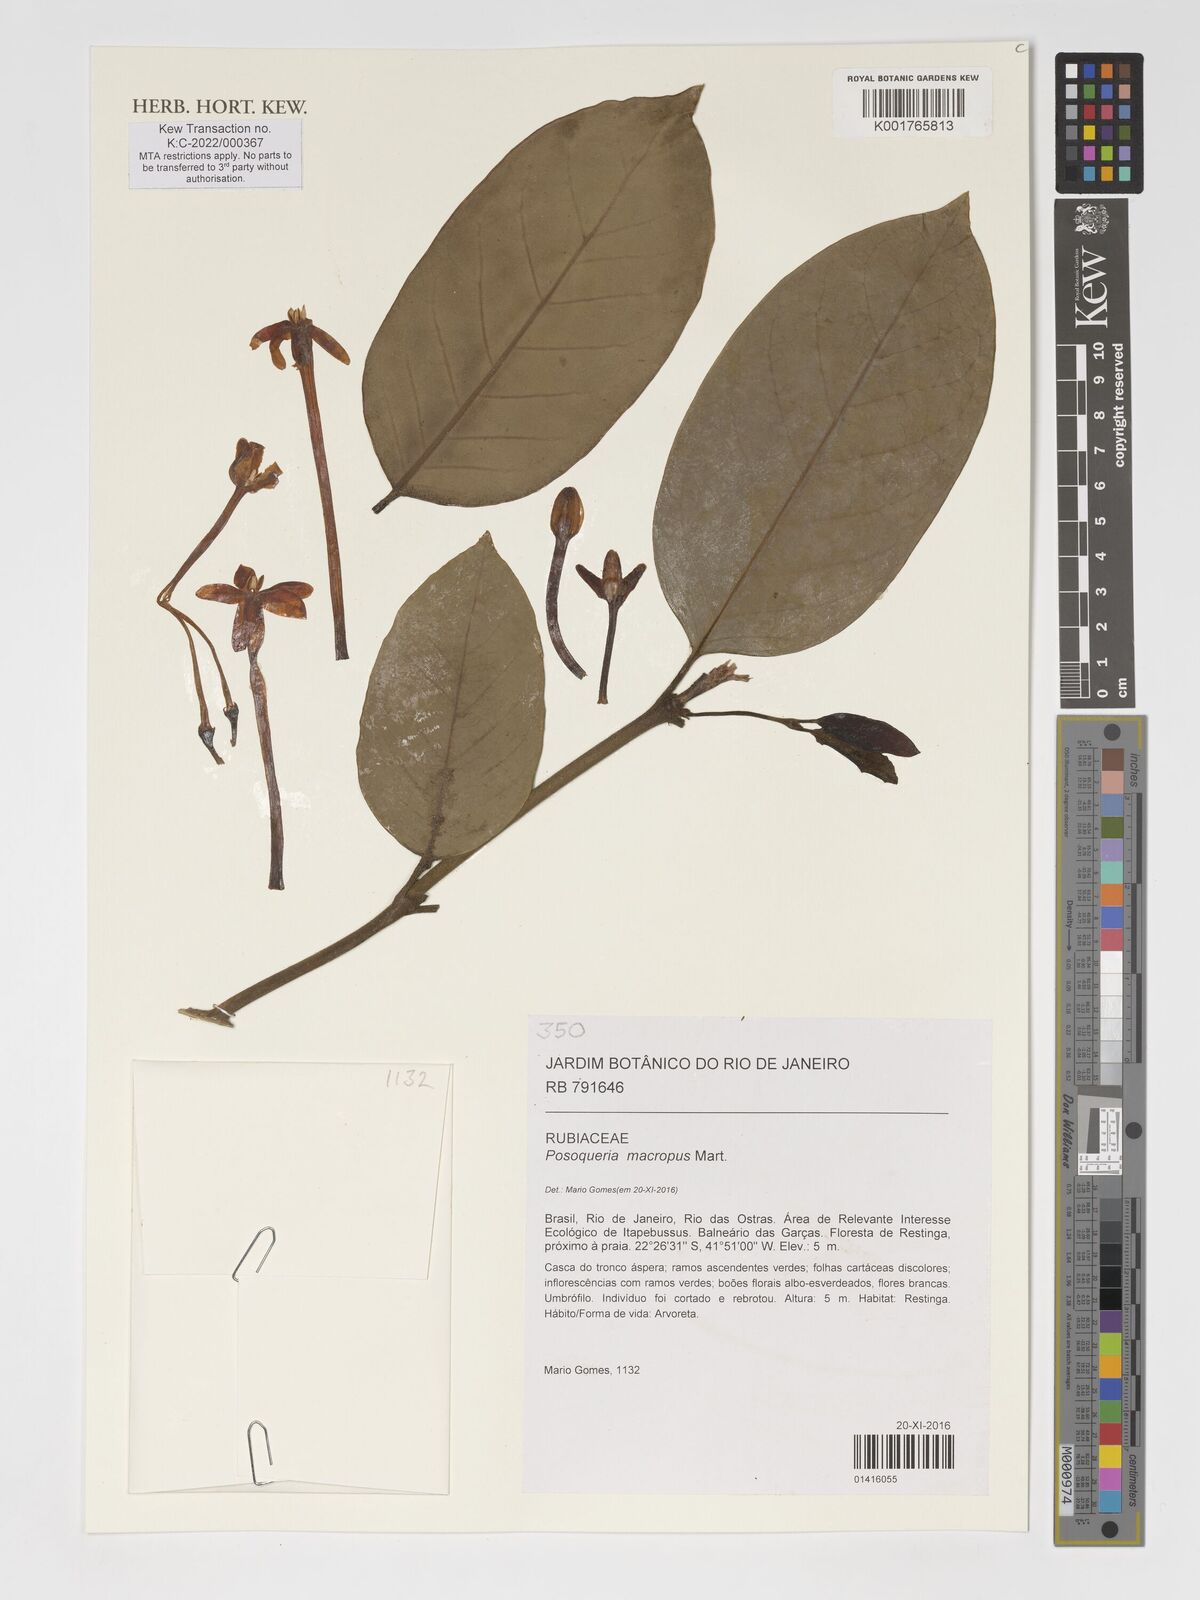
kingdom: Plantae
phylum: Tracheophyta
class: Magnoliopsida
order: Gentianales
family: Rubiaceae
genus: Posoqueria
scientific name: Posoqueria latifolia
